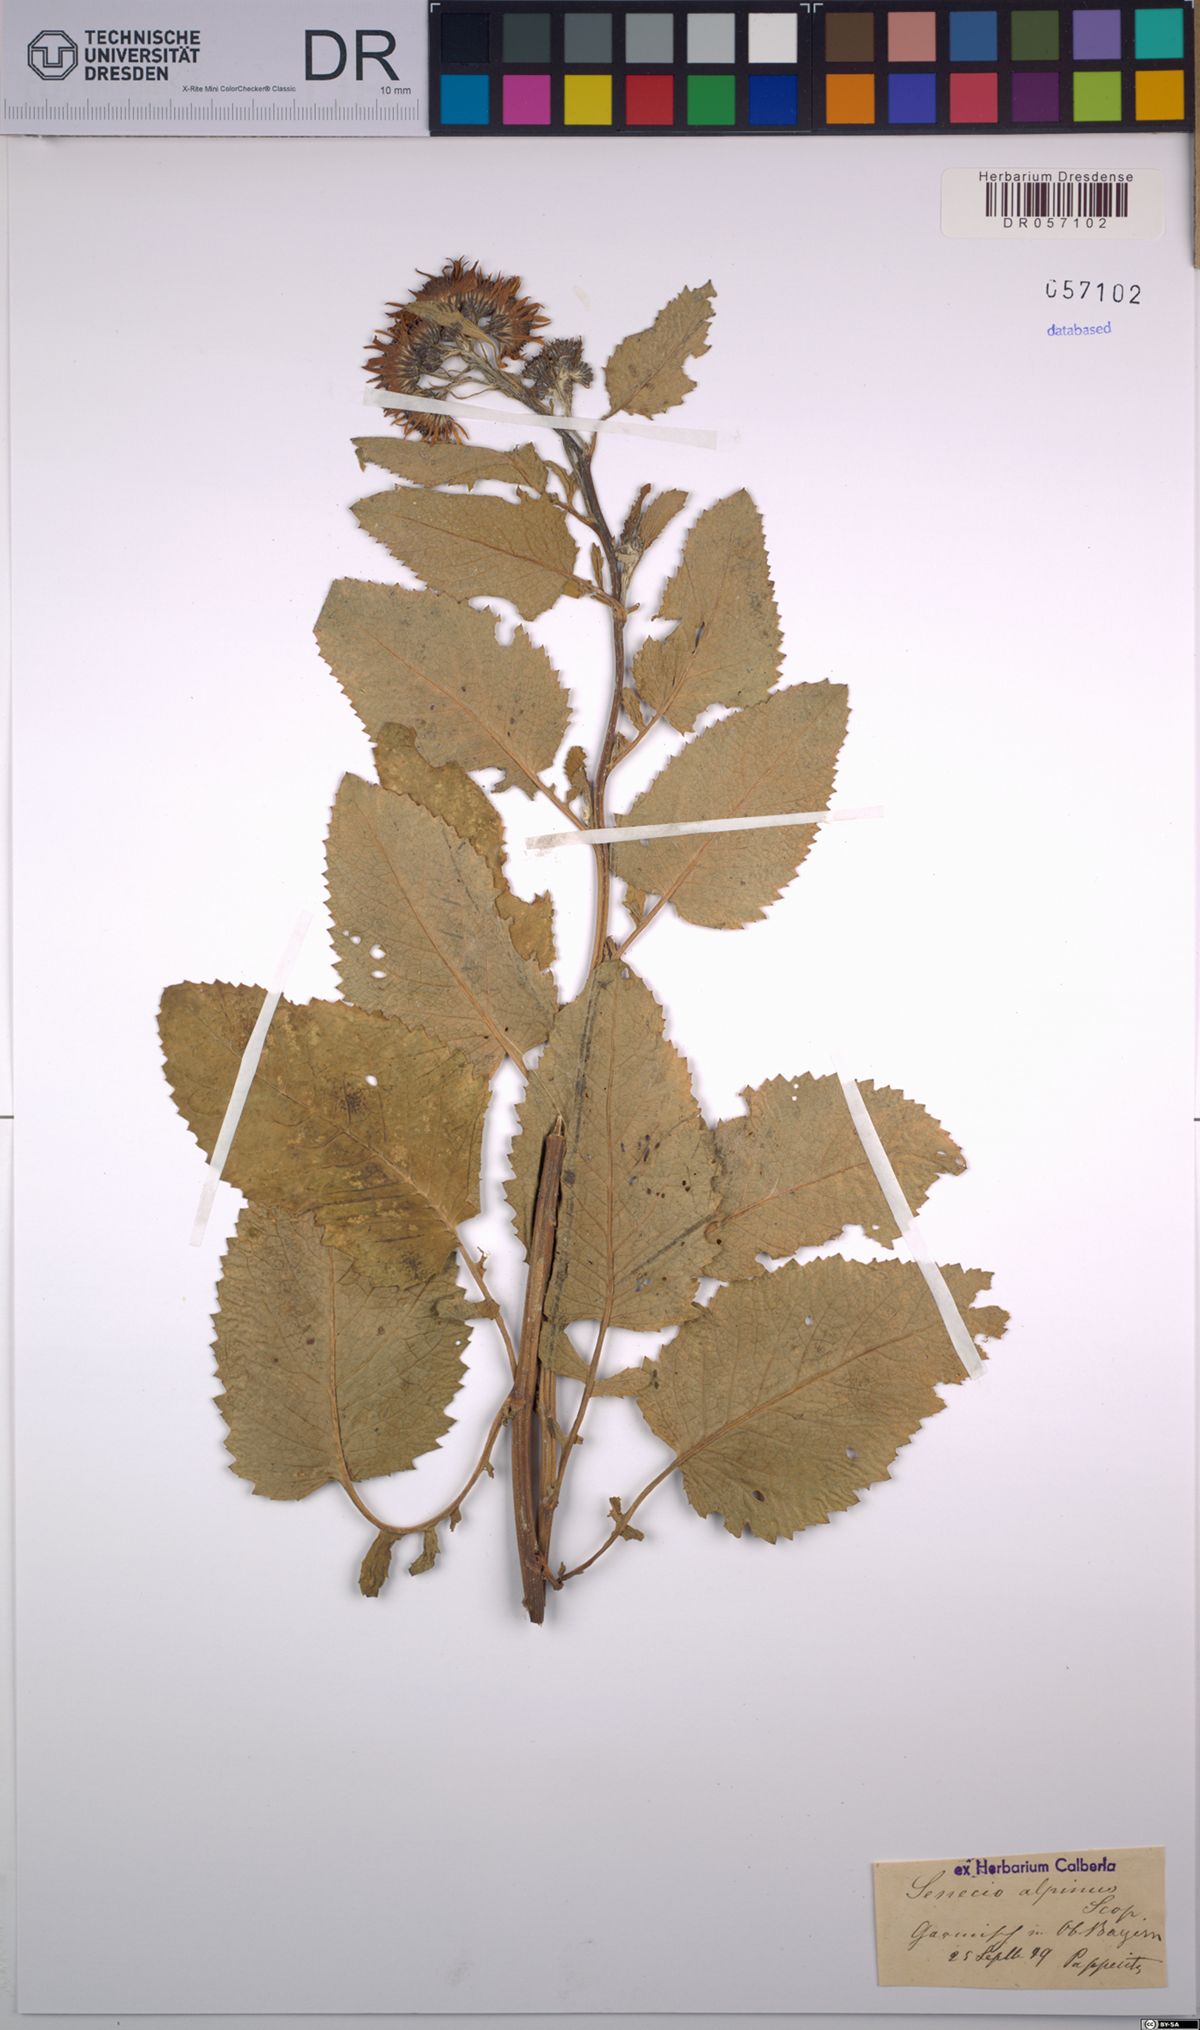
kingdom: Plantae
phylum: Tracheophyta
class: Magnoliopsida
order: Asterales
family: Asteraceae
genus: Jacobaea
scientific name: Jacobaea alpina
